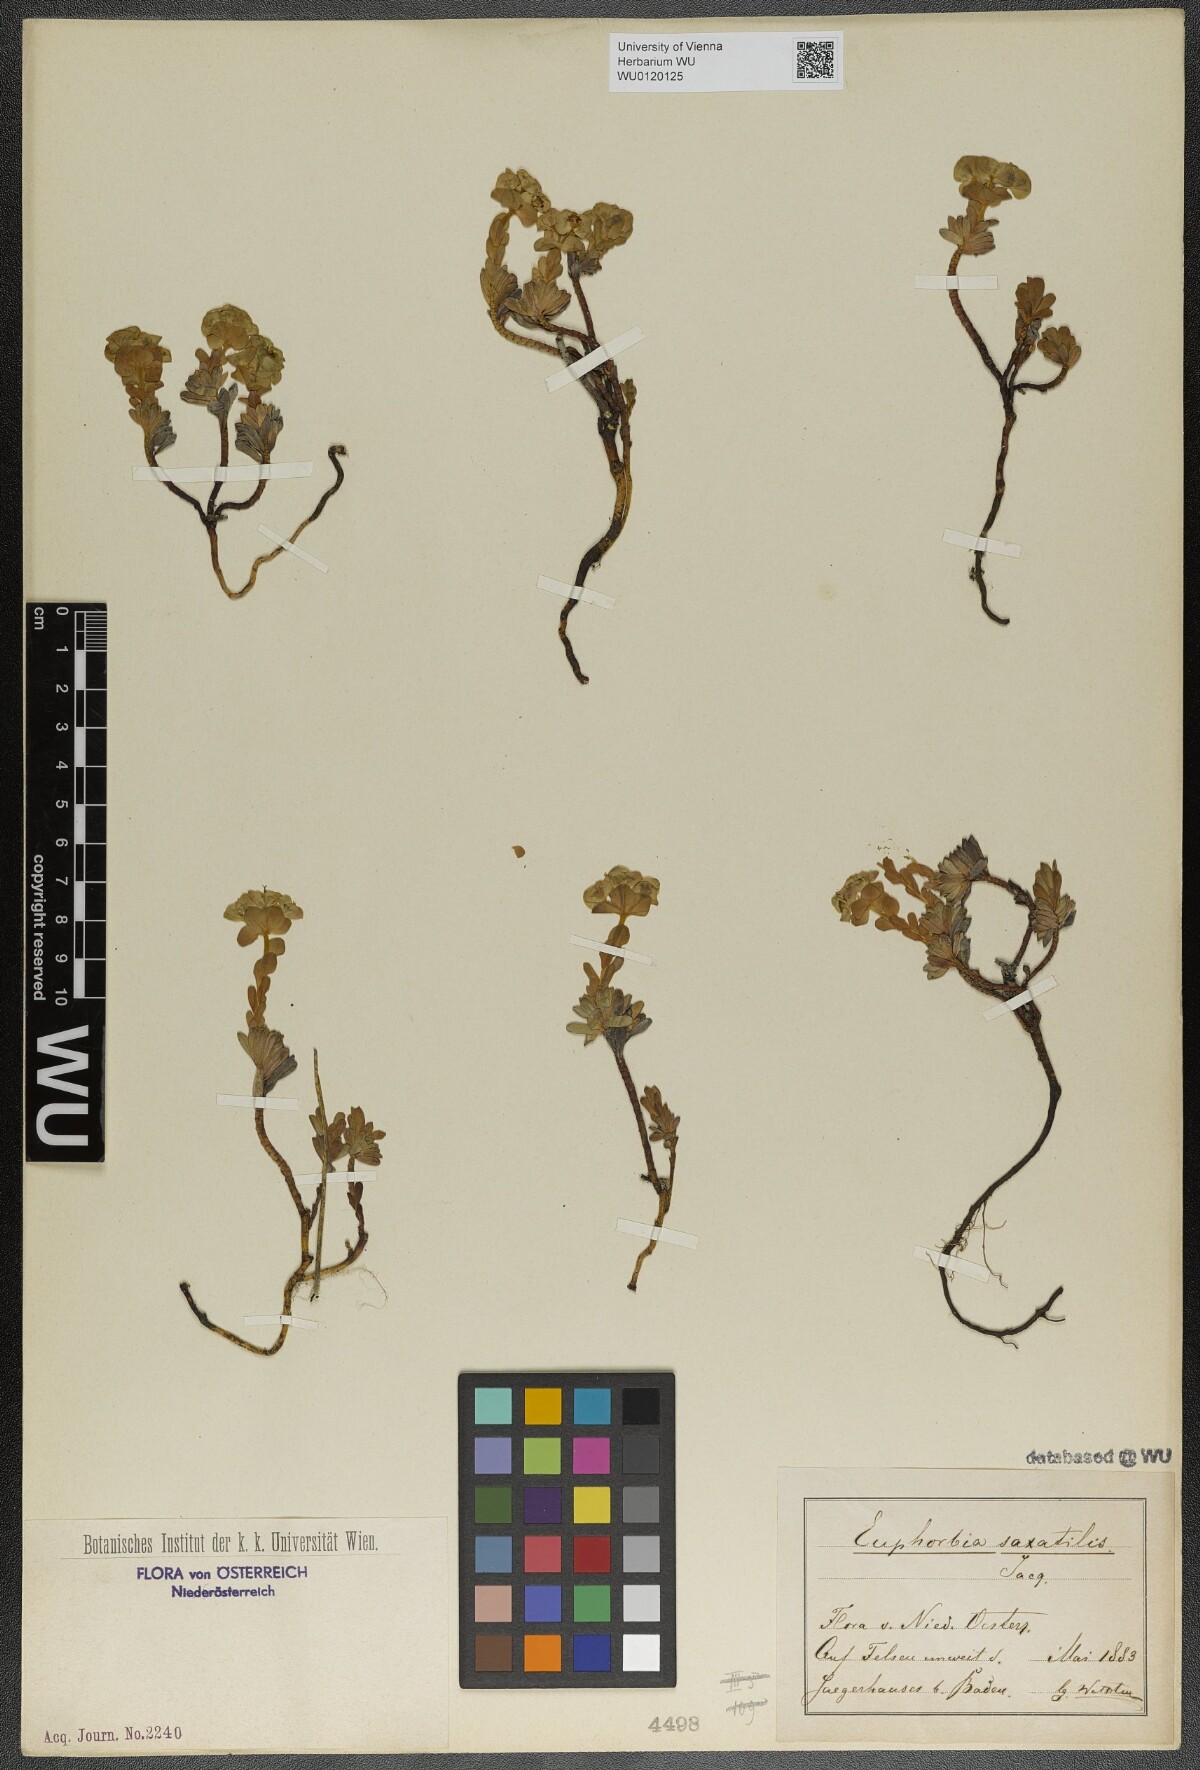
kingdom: Plantae
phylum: Tracheophyta
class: Magnoliopsida
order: Malpighiales
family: Euphorbiaceae
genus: Euphorbia
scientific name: Euphorbia saxatilis
